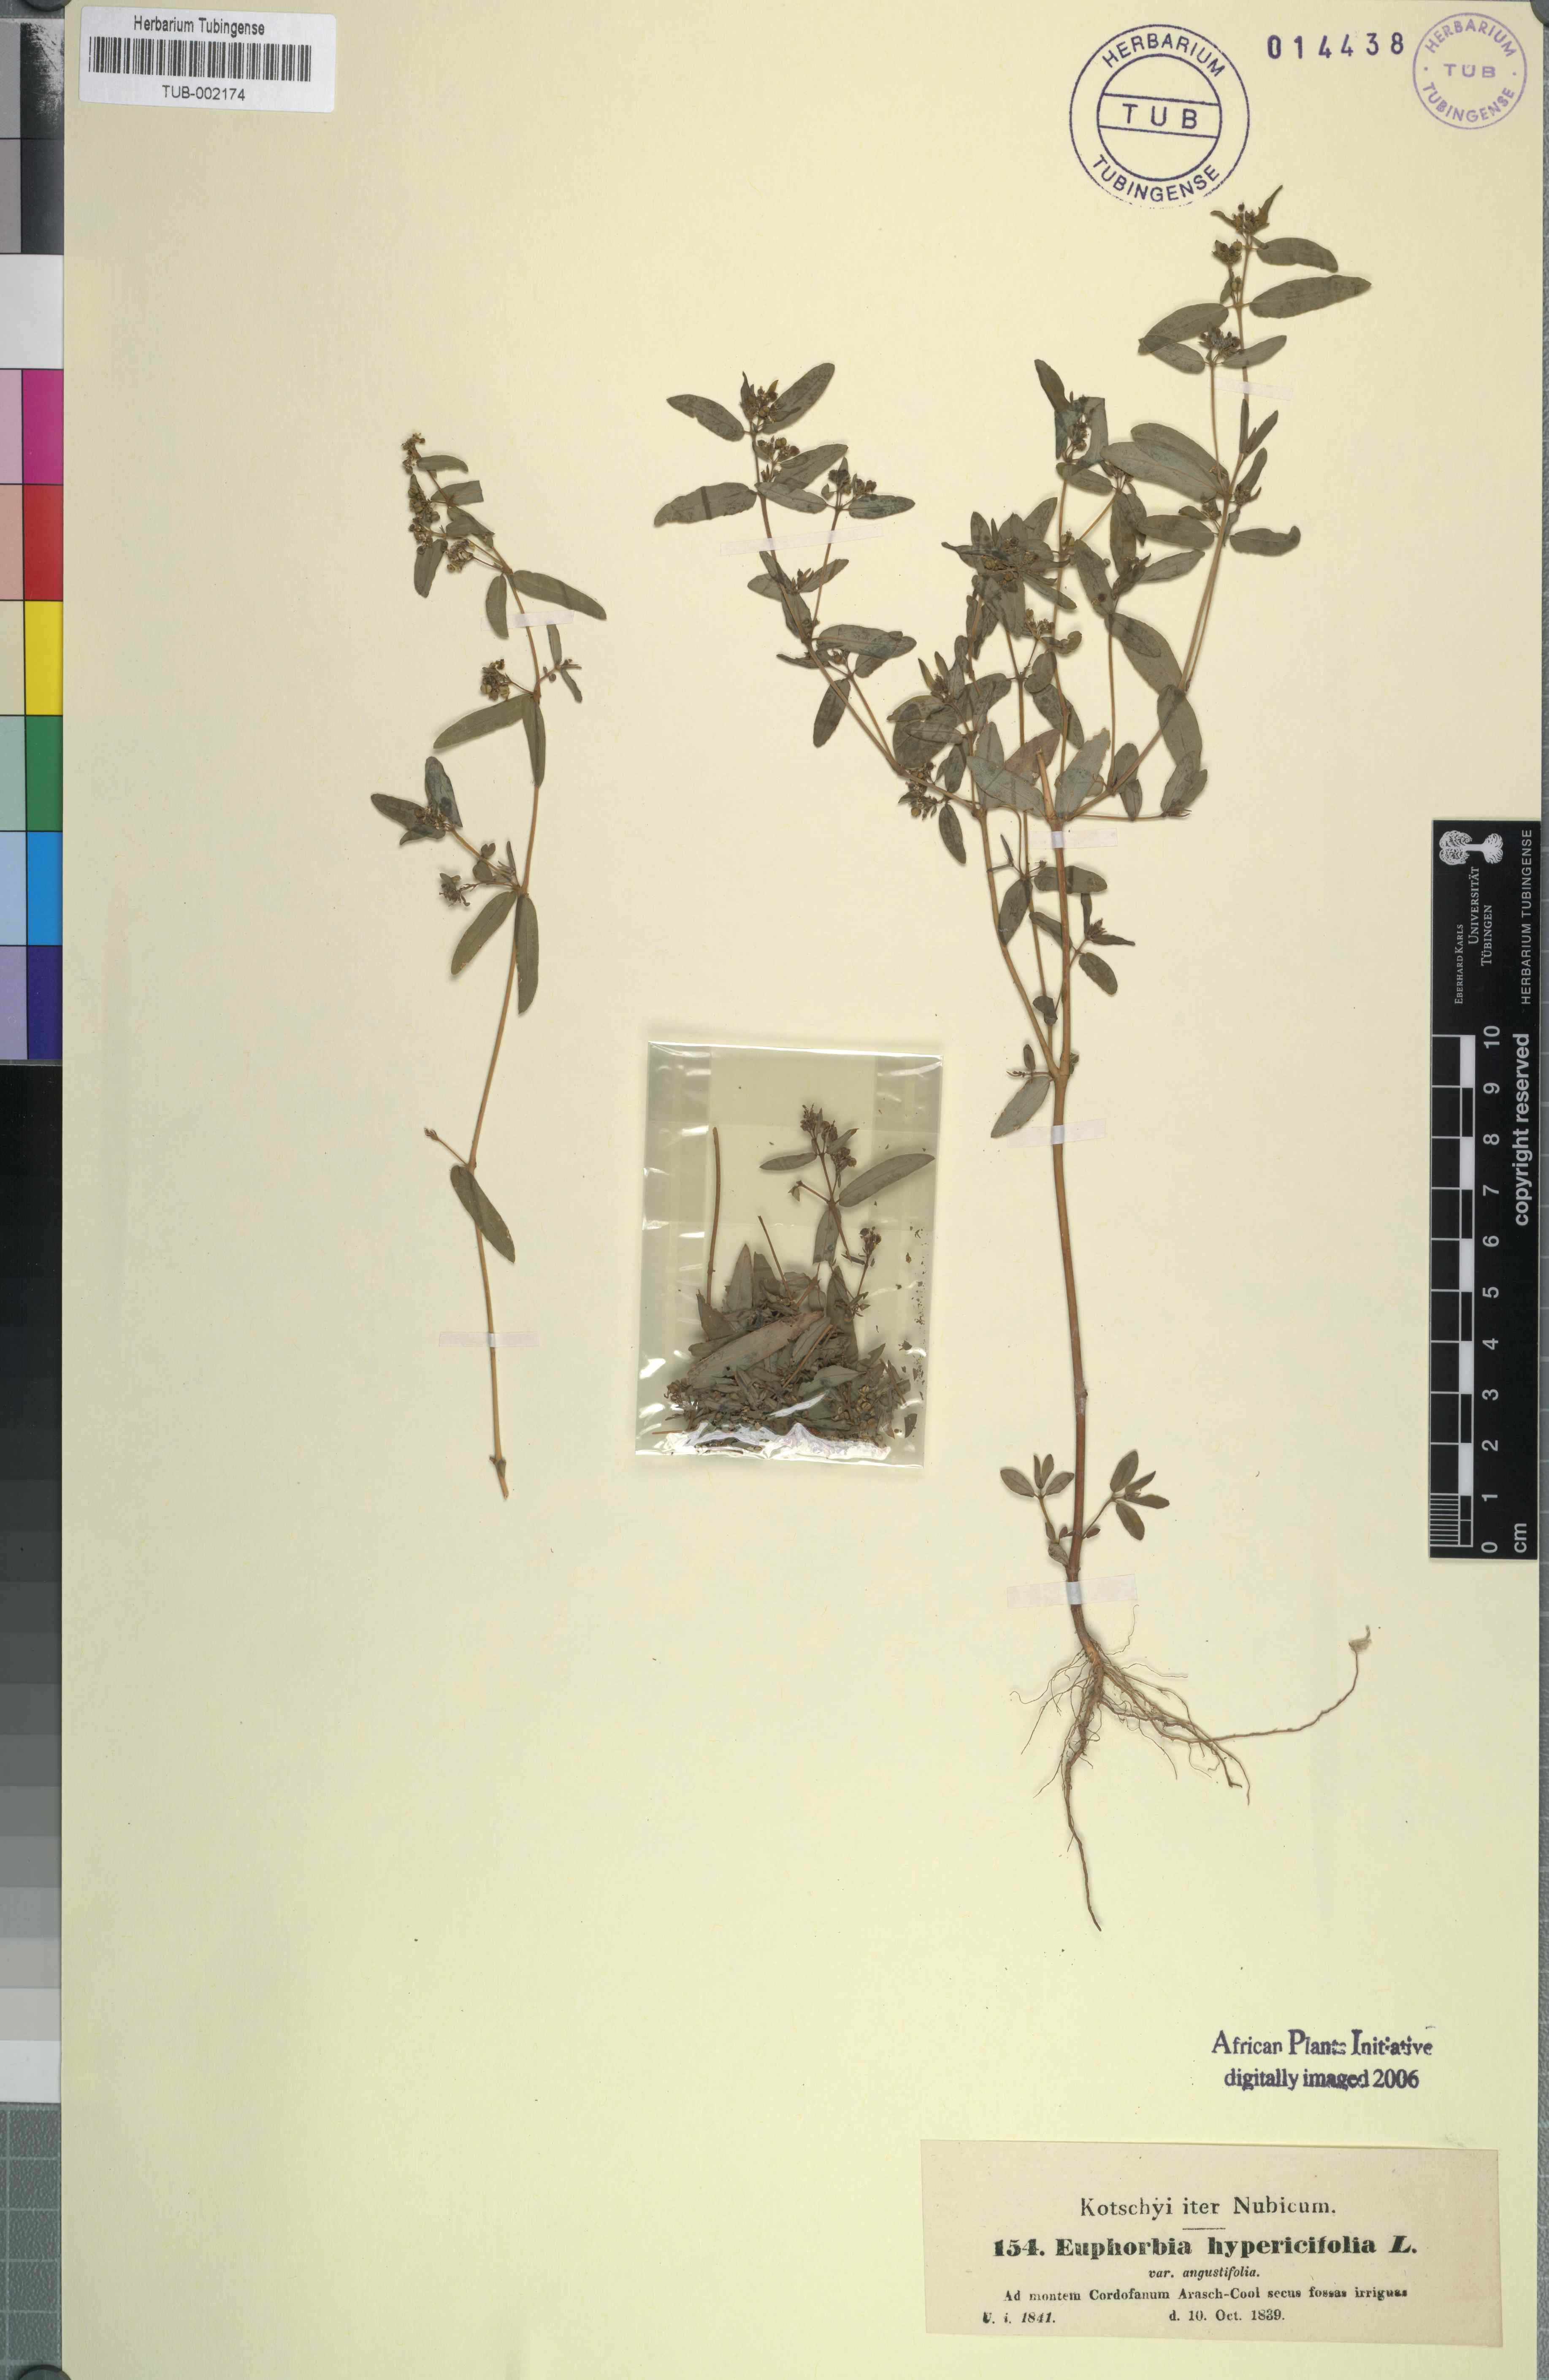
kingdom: Plantae
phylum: Tracheophyta
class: Magnoliopsida
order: Malpighiales
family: Euphorbiaceae
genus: Euphorbia
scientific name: Euphorbia indica
